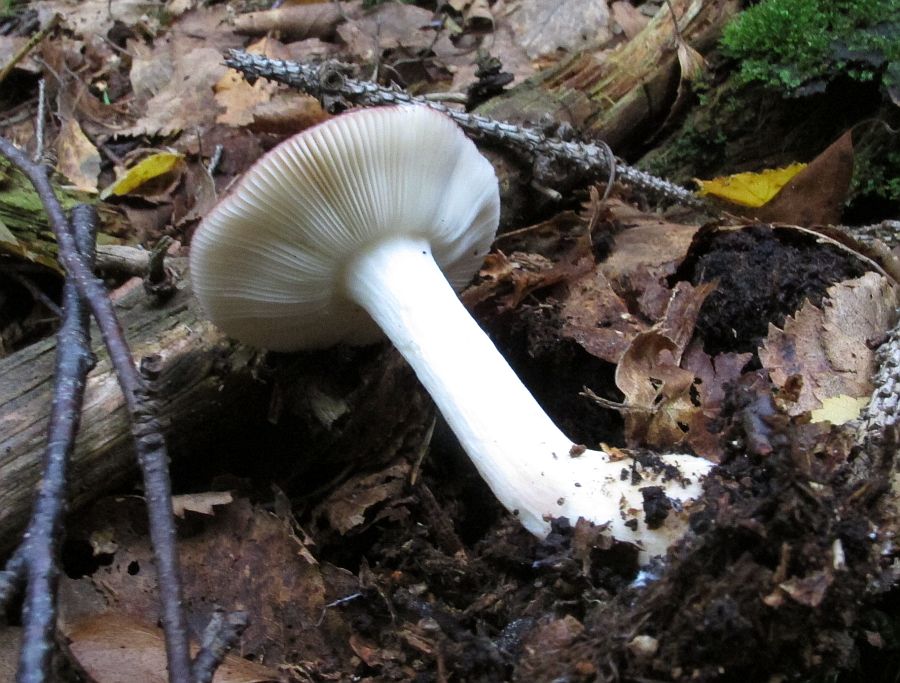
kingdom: Fungi
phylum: Basidiomycota
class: Agaricomycetes
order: Russulales
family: Russulaceae
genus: Russula
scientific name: Russula nitida
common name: året skørhat
